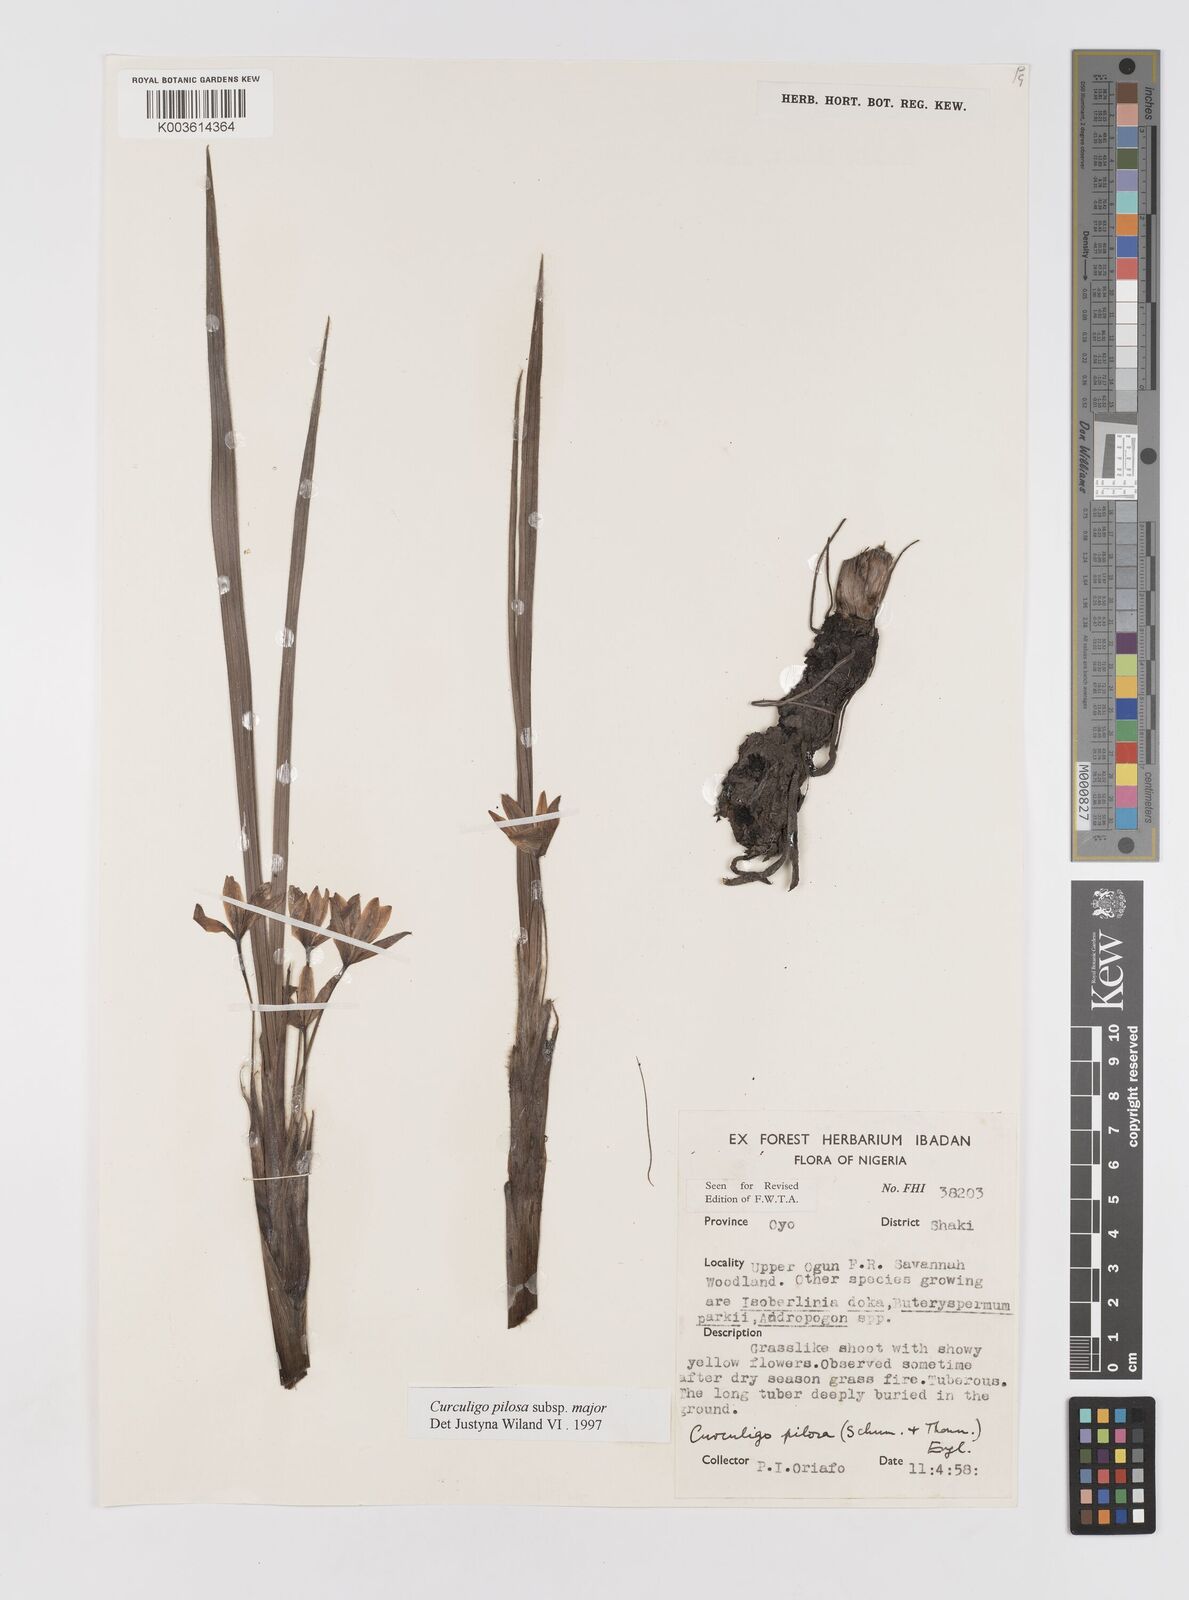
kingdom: Plantae
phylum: Tracheophyta
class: Liliopsida
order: Asparagales
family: Hypoxidaceae
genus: Curculigo
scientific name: Curculigo pilosa
